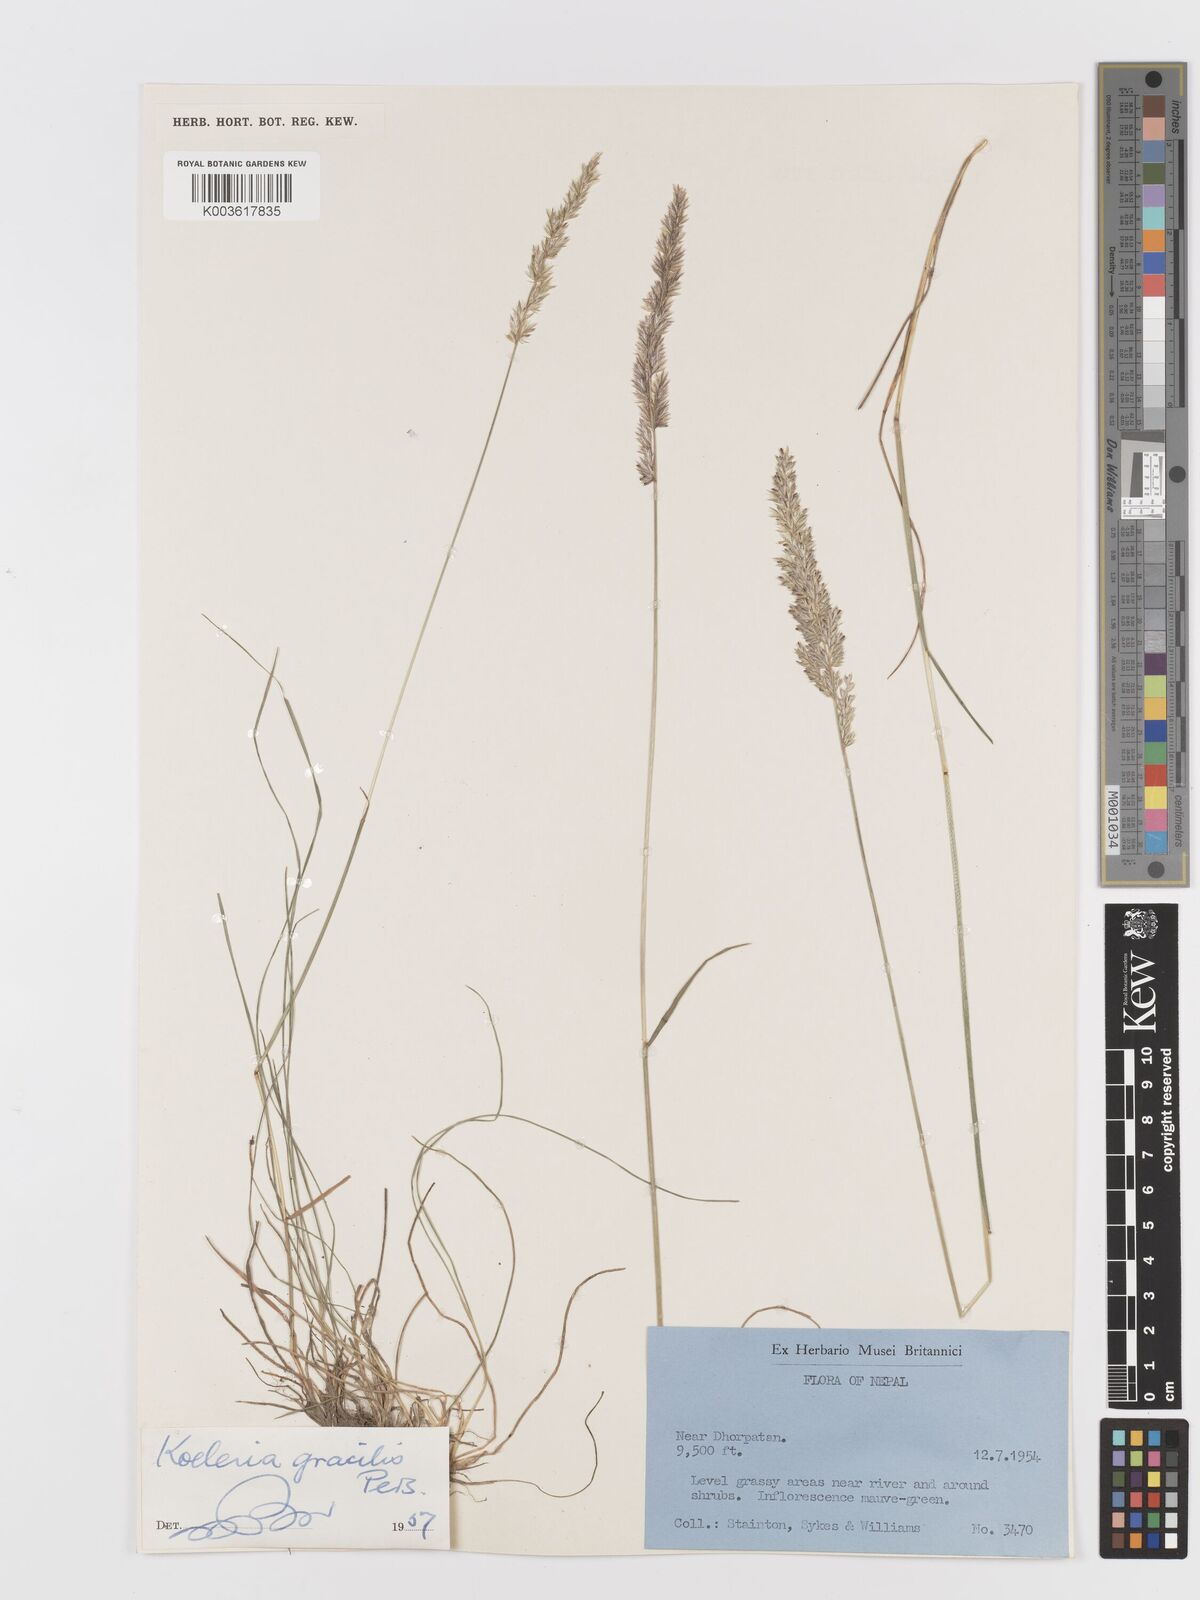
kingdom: Plantae
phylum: Tracheophyta
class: Liliopsida
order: Poales
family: Poaceae
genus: Koeleria
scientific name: Koeleria macrantha
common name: Crested hair-grass
